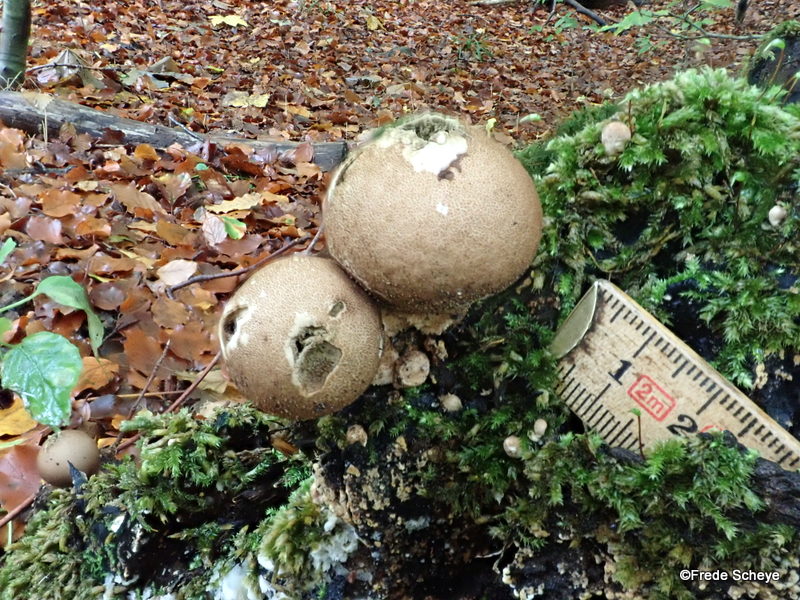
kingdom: Fungi
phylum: Basidiomycota
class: Agaricomycetes
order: Agaricales
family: Lycoperdaceae
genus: Apioperdon
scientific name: Apioperdon pyriforme
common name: pære-støvbold
